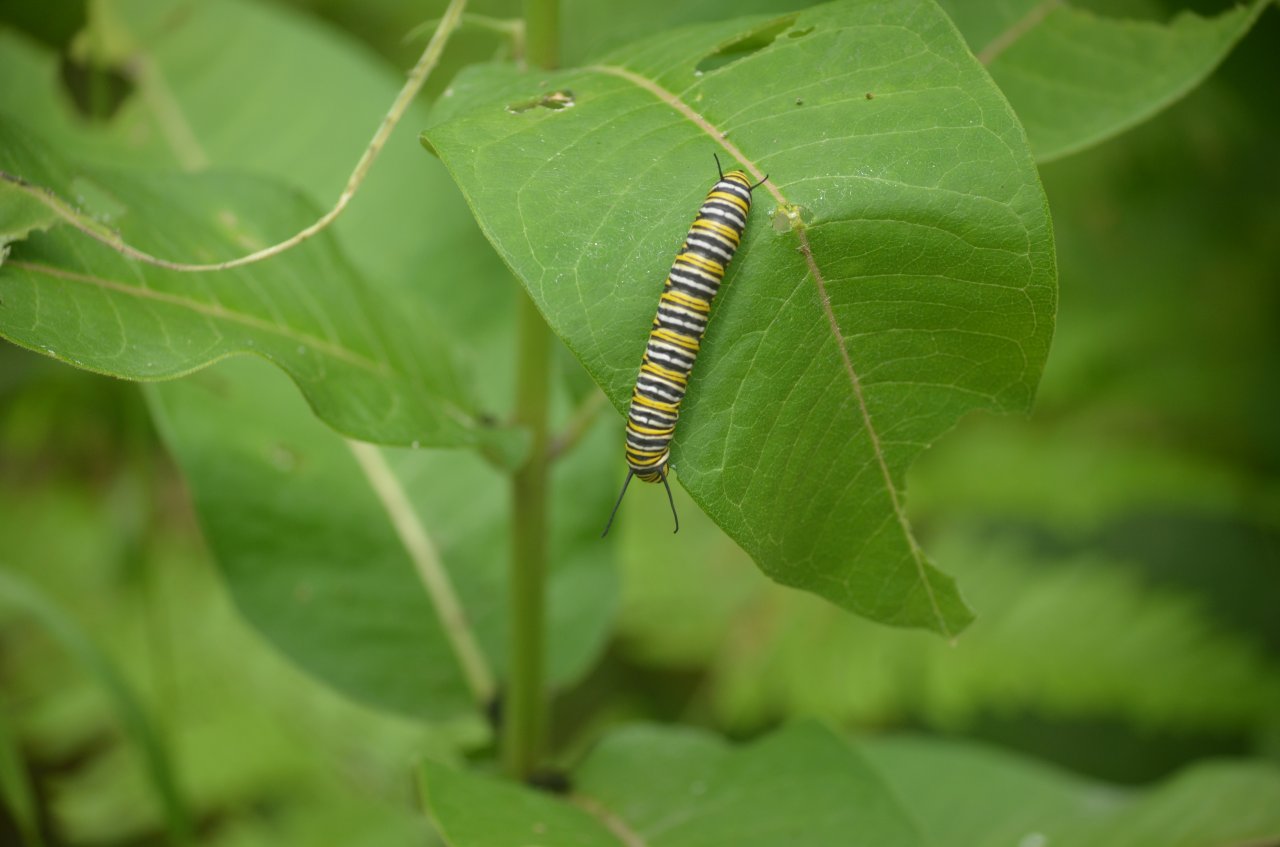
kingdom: Animalia
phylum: Arthropoda
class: Insecta
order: Lepidoptera
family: Nymphalidae
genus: Danaus
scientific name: Danaus plexippus
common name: Monarch
